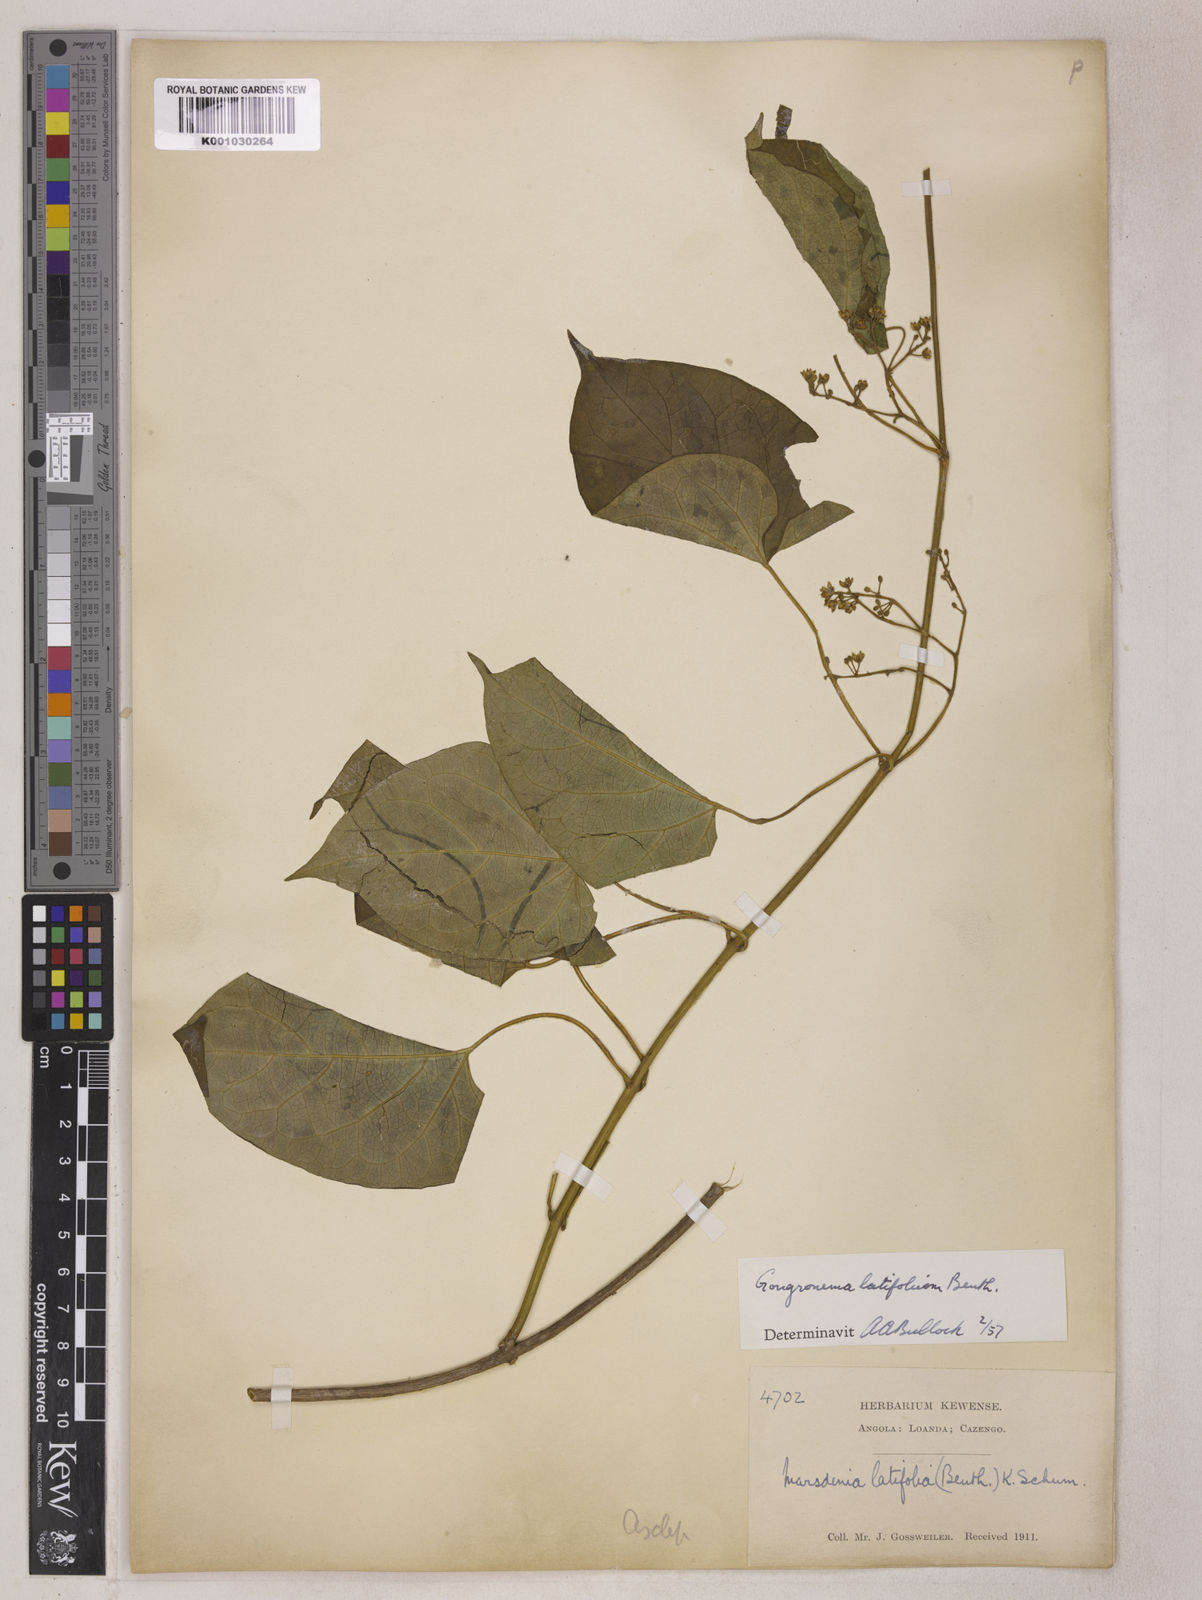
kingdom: Plantae
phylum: Tracheophyta
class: Magnoliopsida
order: Gentianales
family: Apocynaceae
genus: Gongronemopsis
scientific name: Gongronemopsis latifolia
